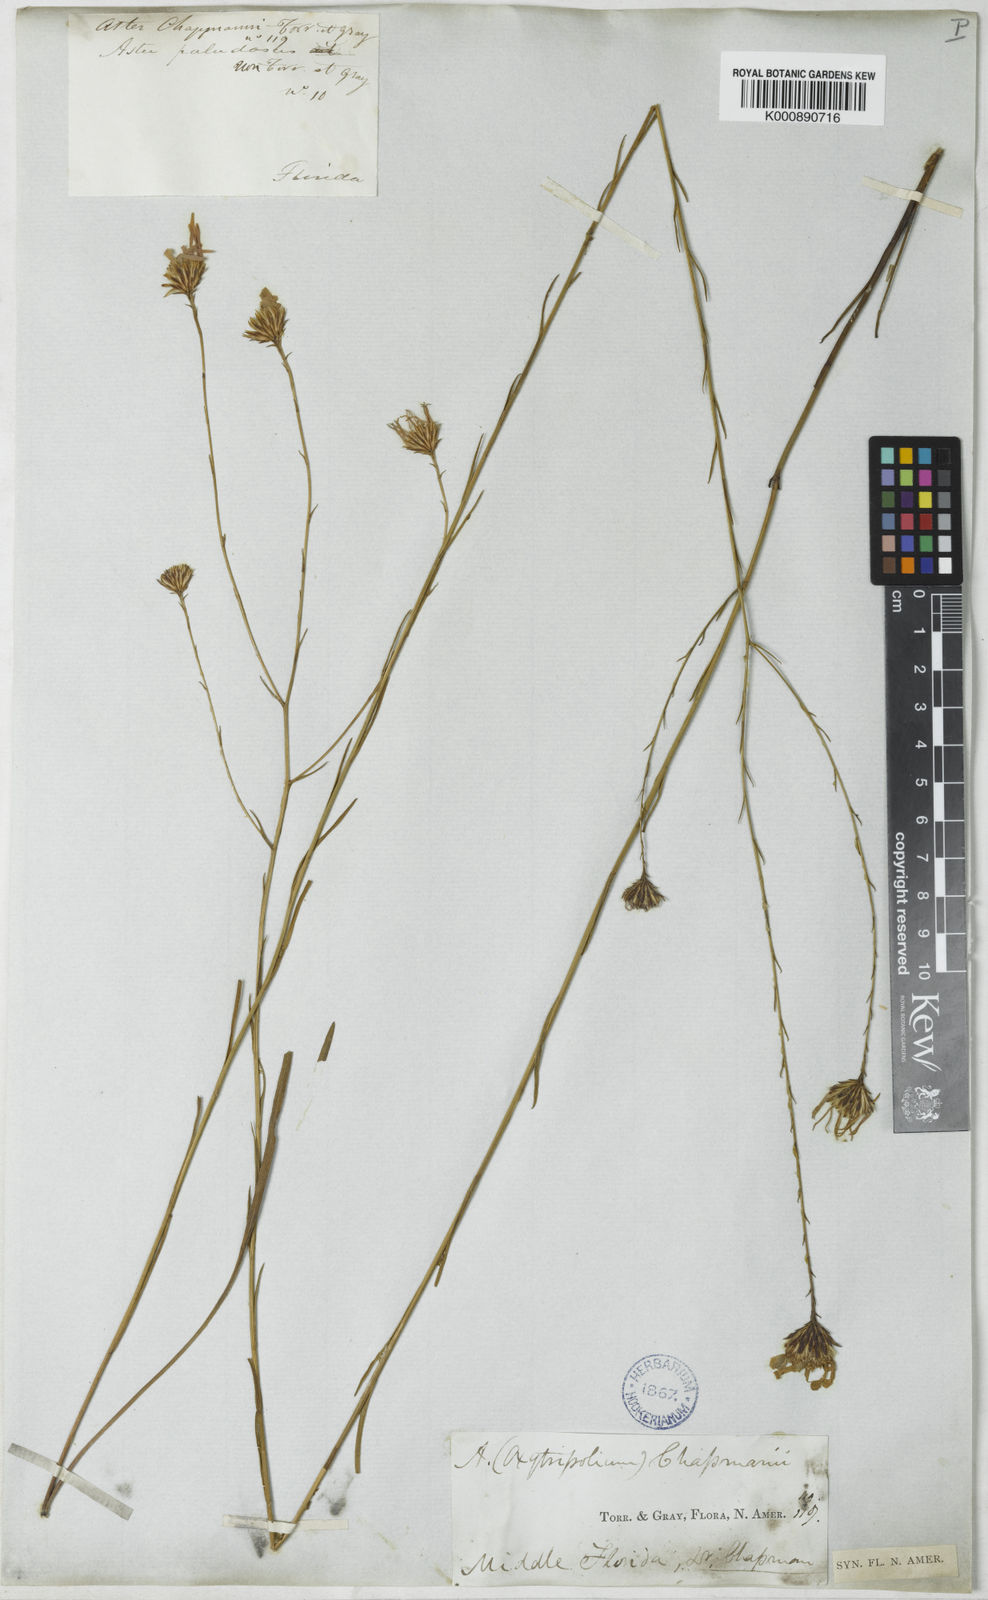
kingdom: Plantae
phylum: Tracheophyta
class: Magnoliopsida
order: Asterales
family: Asteraceae
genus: Symphyotrichum
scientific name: Symphyotrichum chapmanii
